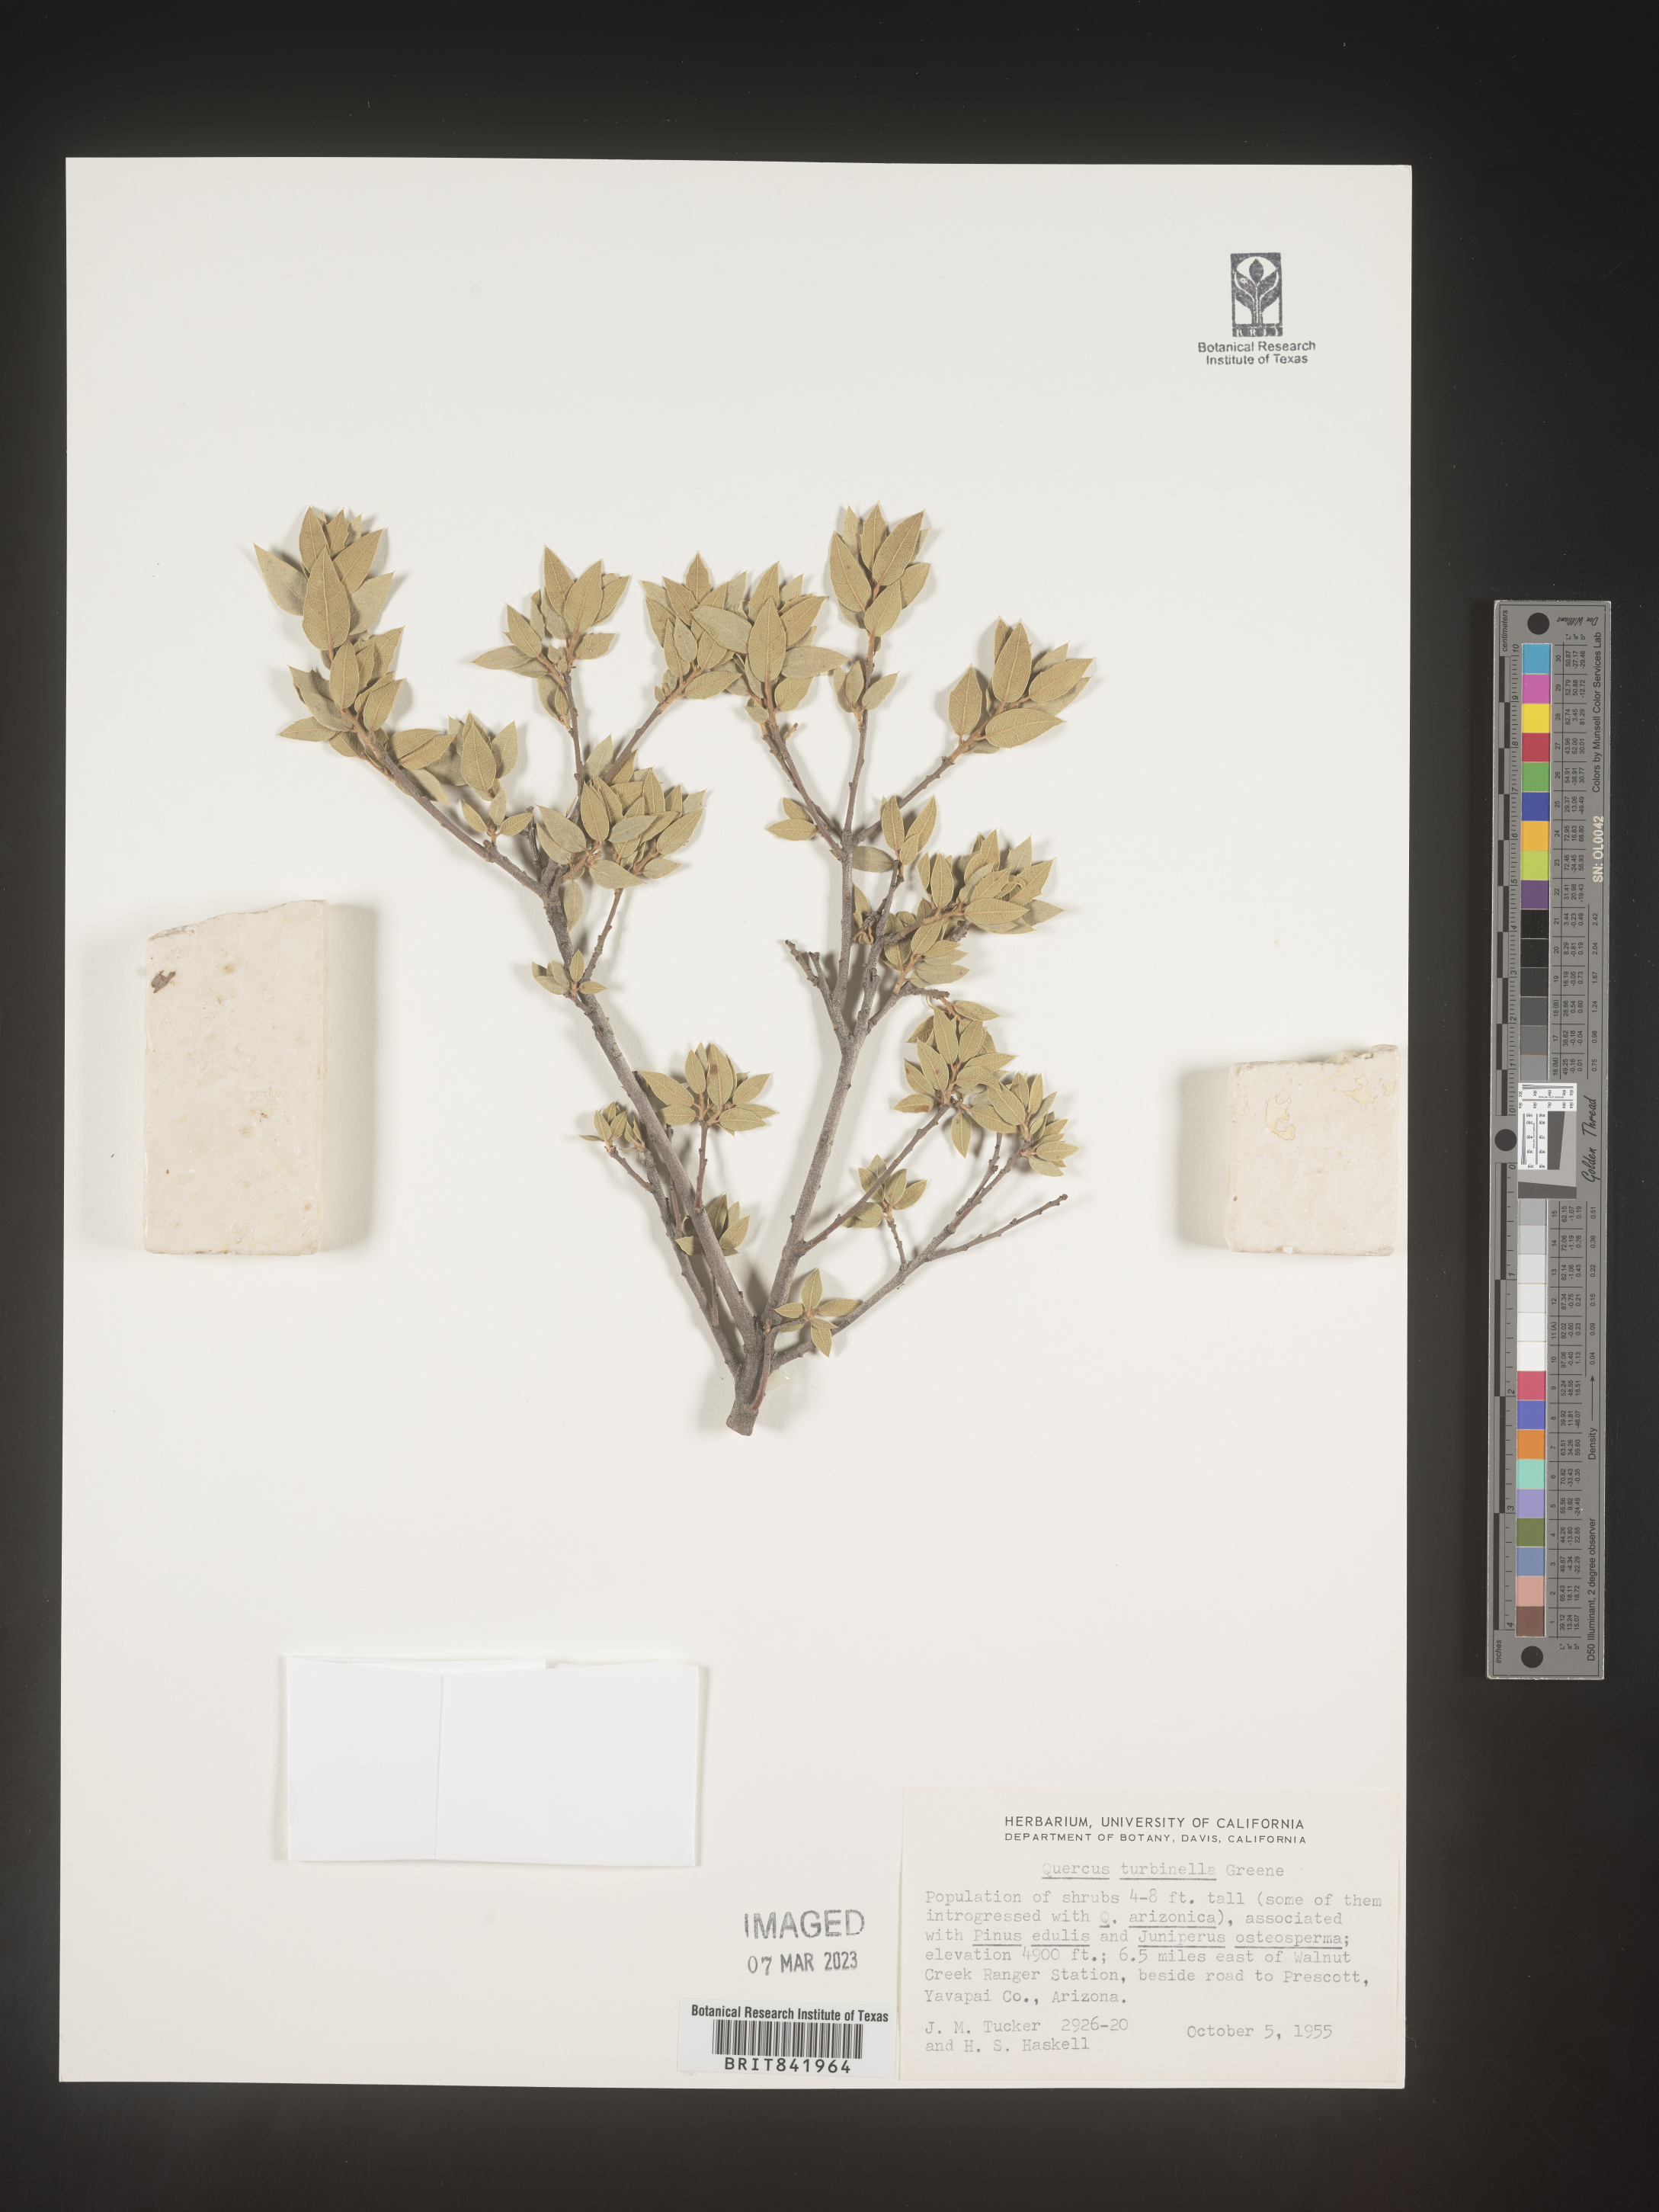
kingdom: Plantae
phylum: Tracheophyta
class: Magnoliopsida
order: Fagales
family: Fagaceae
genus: Quercus
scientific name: Quercus turbinella
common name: Sonoran scrub oak
